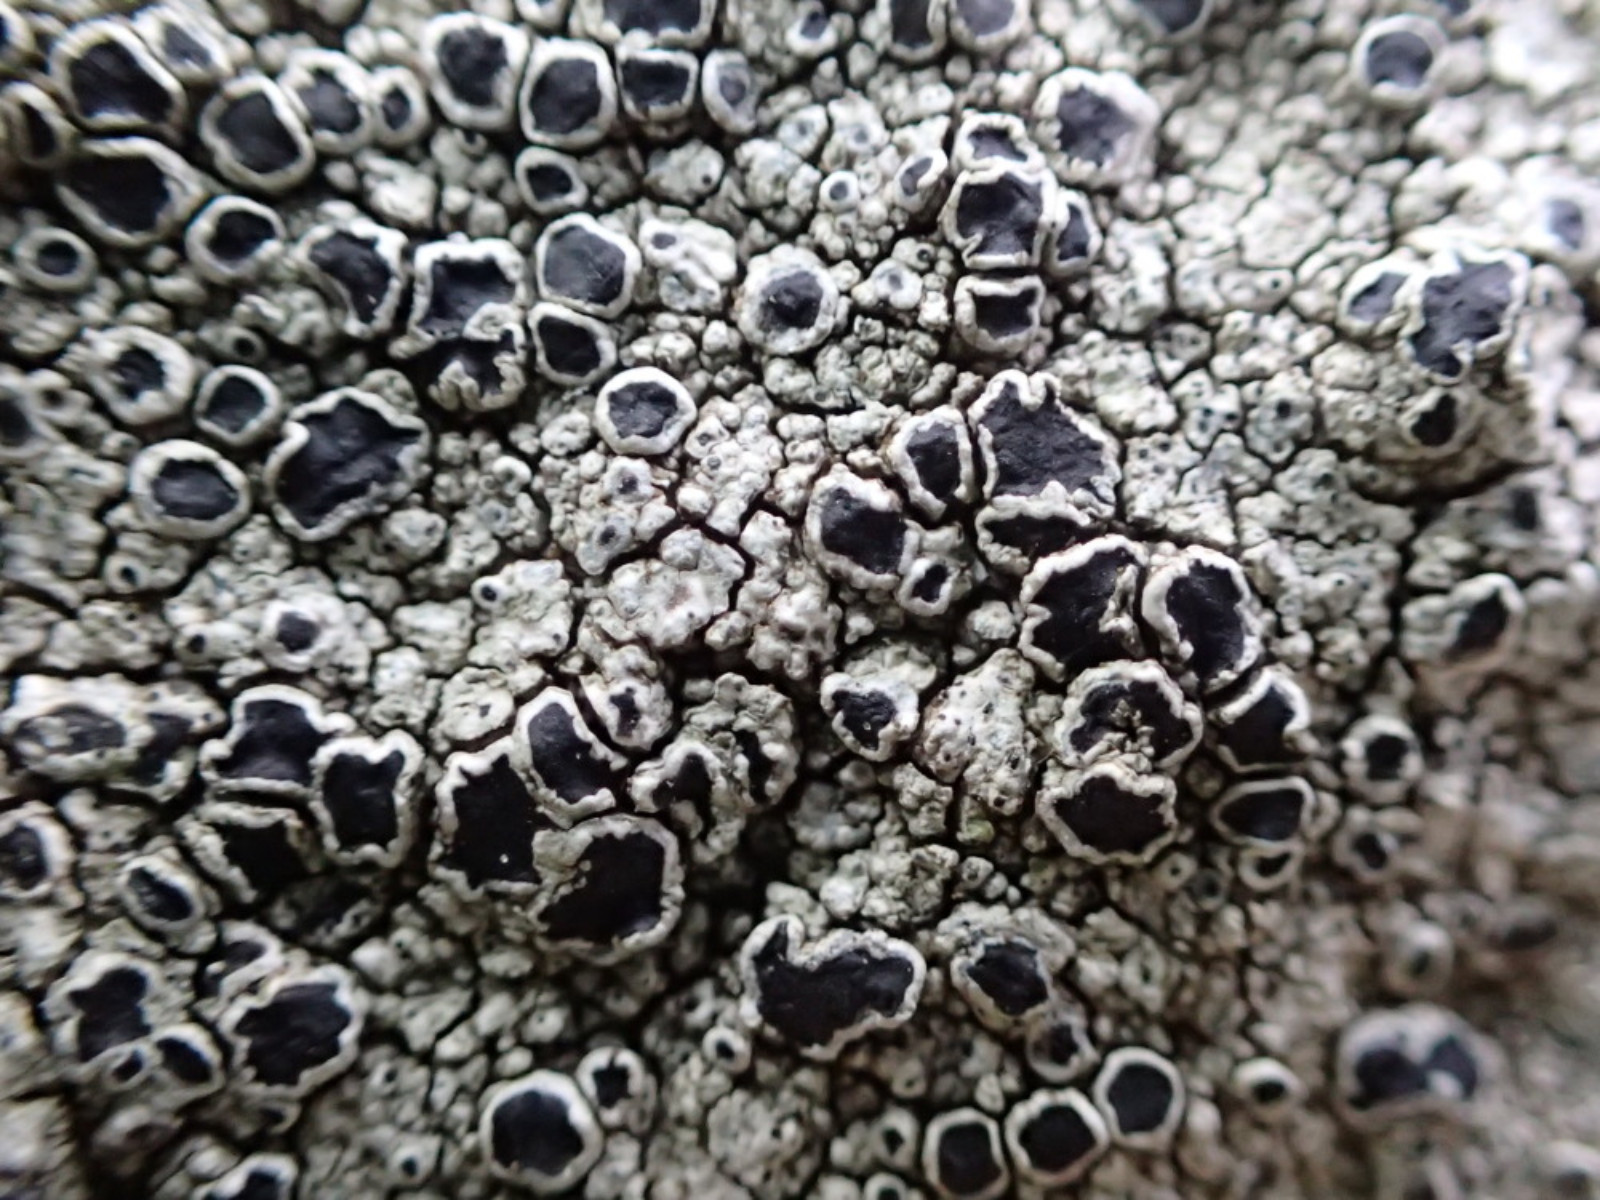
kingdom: Fungi
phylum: Ascomycota
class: Lecanoromycetes
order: Lecanorales
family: Tephromelataceae
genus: Tephromela
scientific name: Tephromela atra
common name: sortfrugtet kantskivelav
